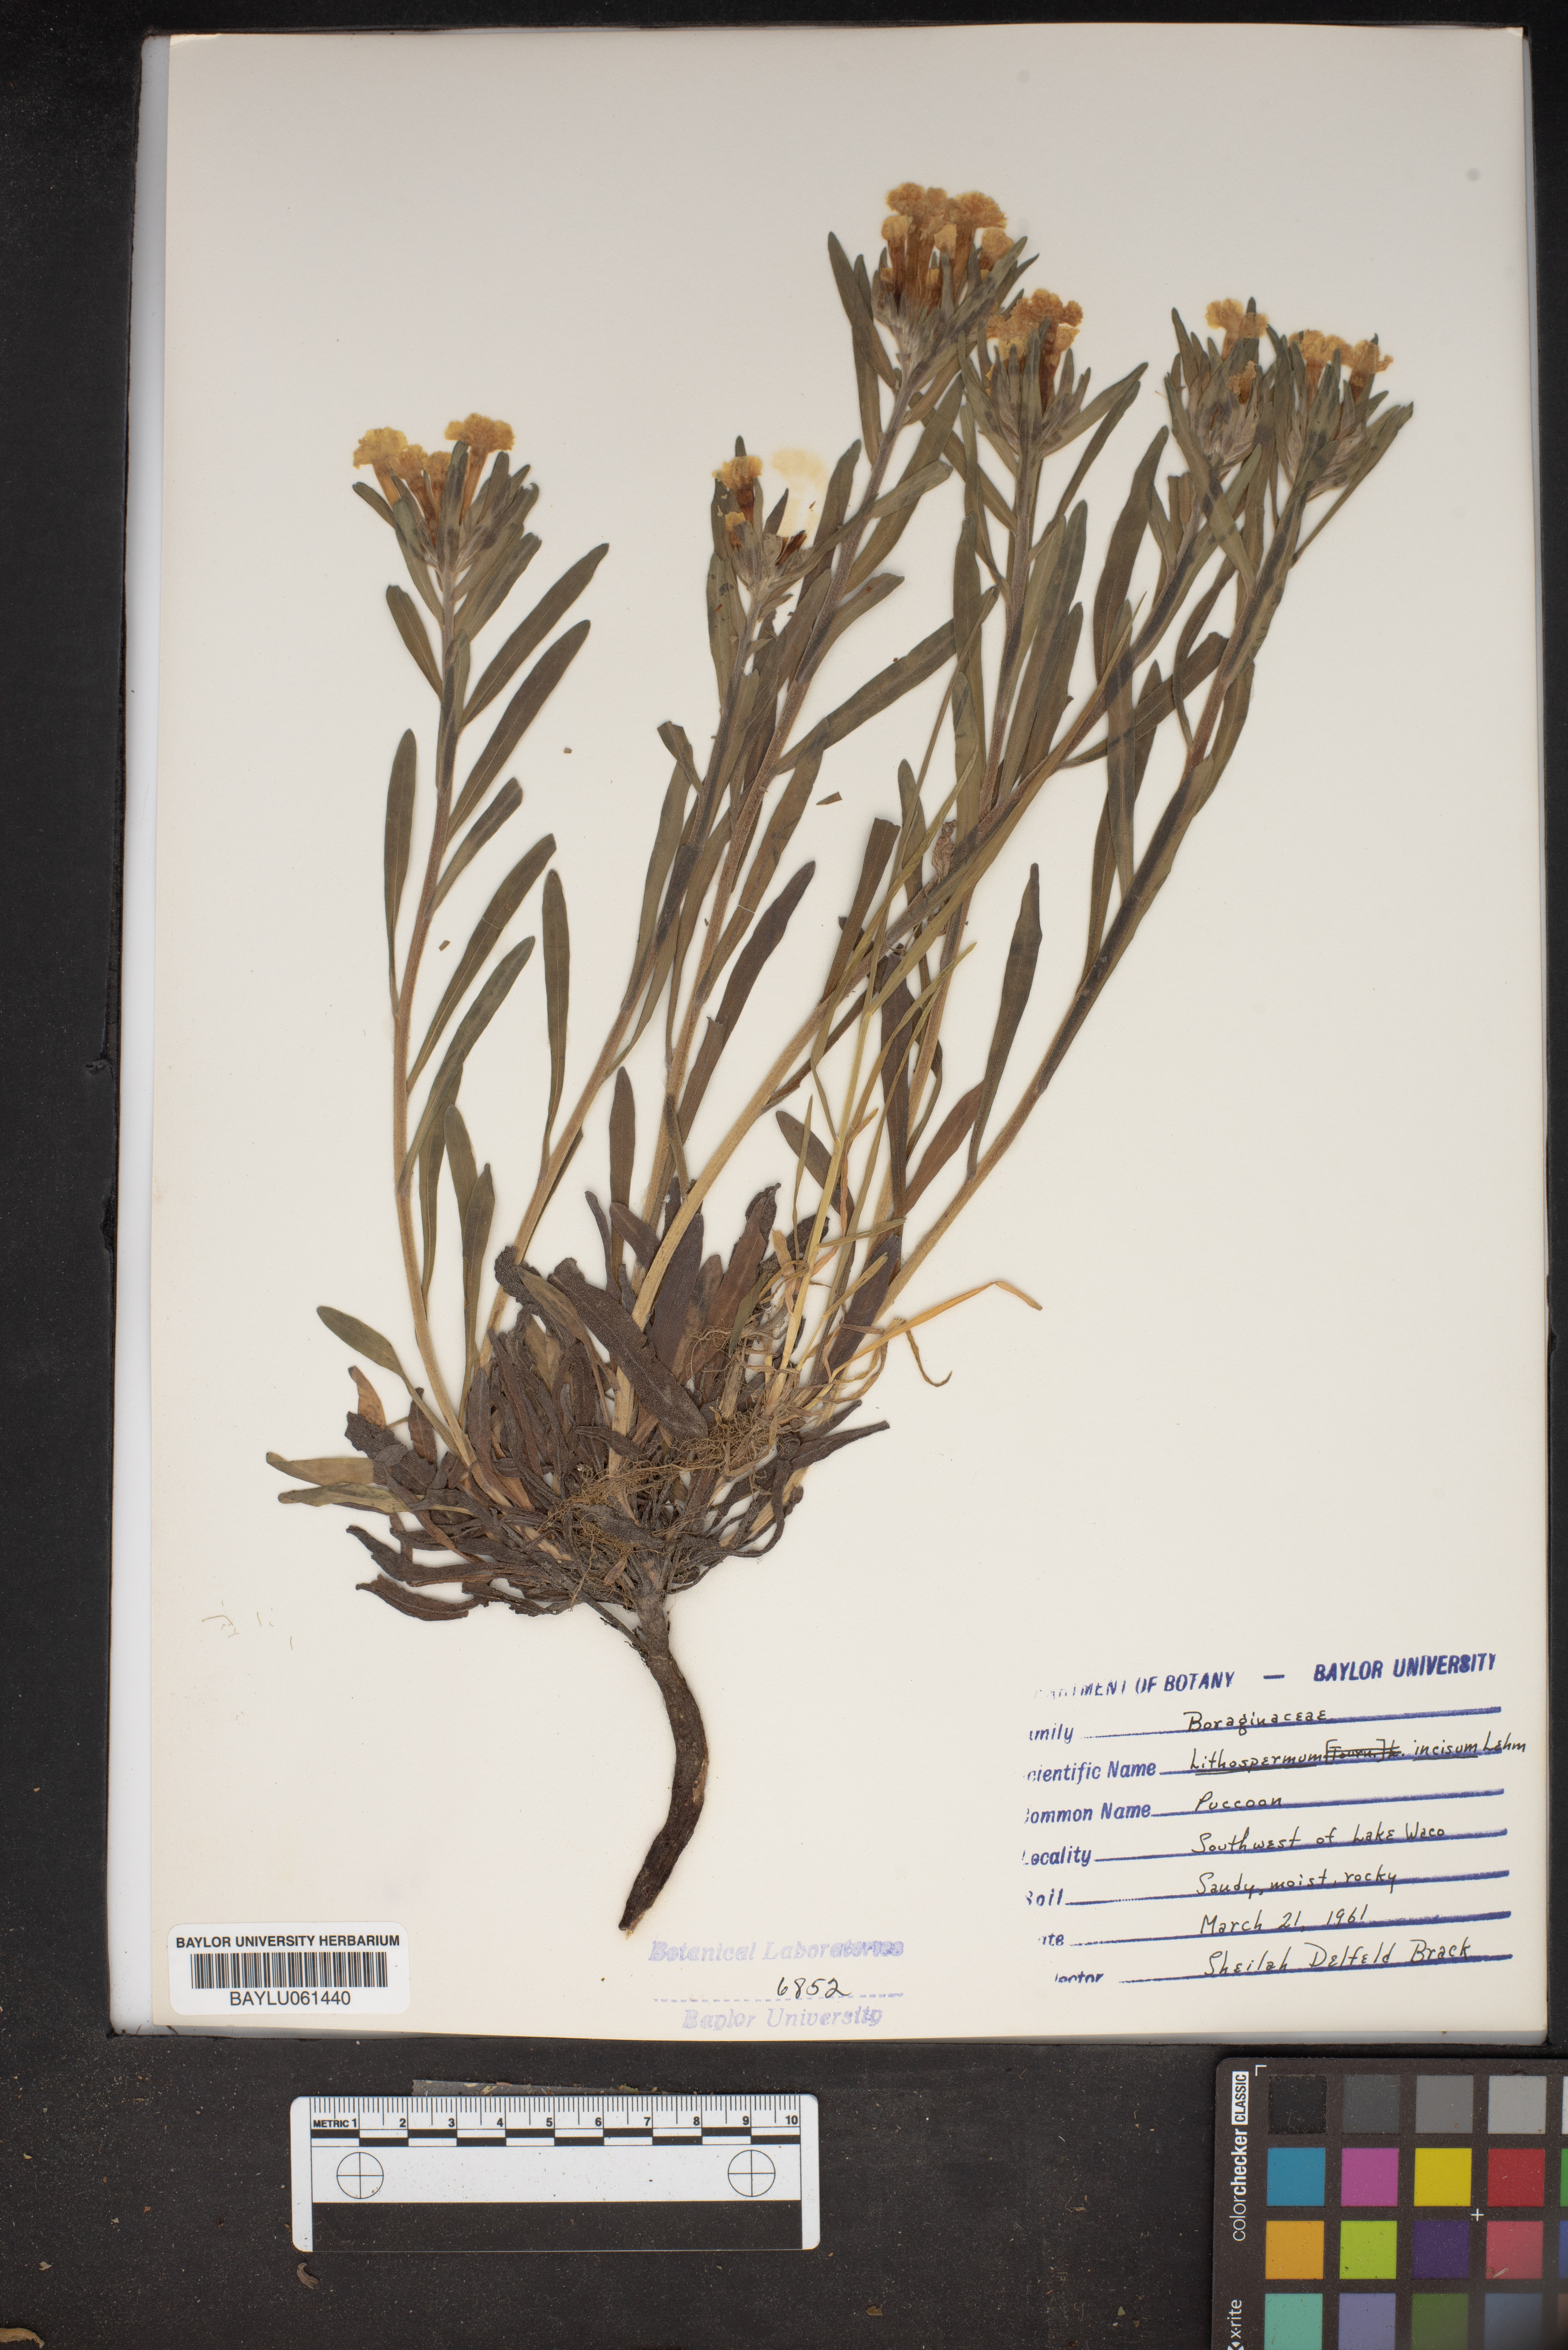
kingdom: Plantae
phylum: Tracheophyta
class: Magnoliopsida
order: Boraginales
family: Boraginaceae
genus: Lithospermum
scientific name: Lithospermum incisum
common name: Fringed gromwell
